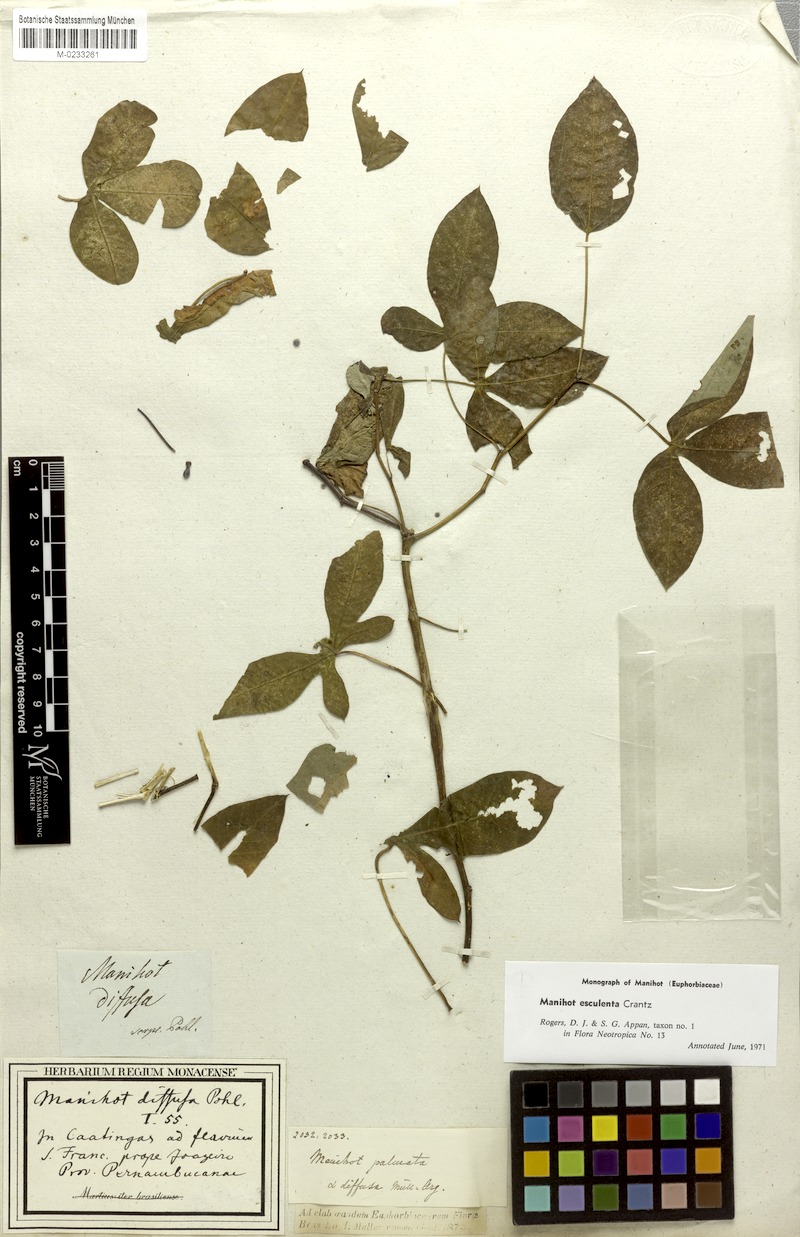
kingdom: Plantae
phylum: Tracheophyta
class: Magnoliopsida
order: Malpighiales
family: Euphorbiaceae
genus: Manihot
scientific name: Manihot esculenta
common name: Cassava
